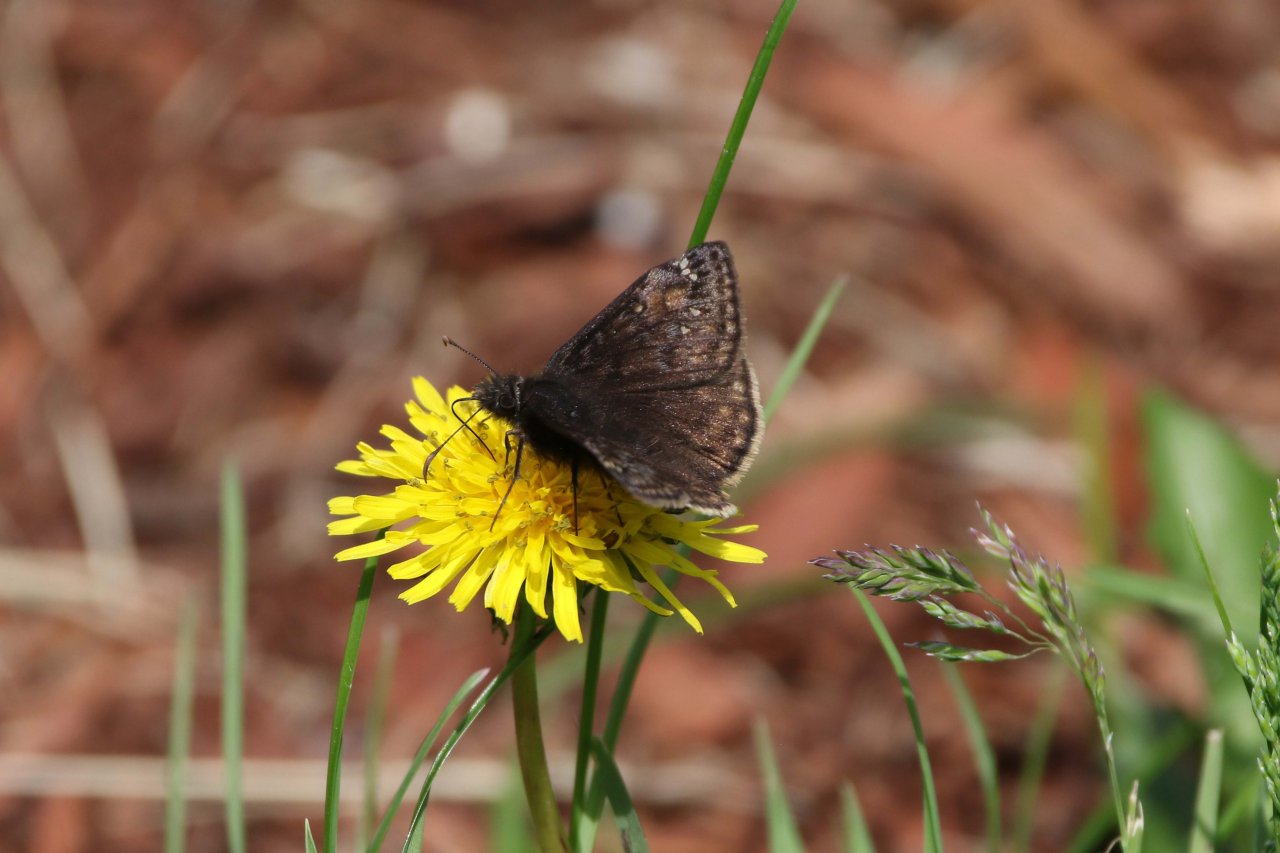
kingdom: Animalia
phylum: Arthropoda
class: Insecta
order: Lepidoptera
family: Hesperiidae
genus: Erynnis
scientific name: Erynnis
